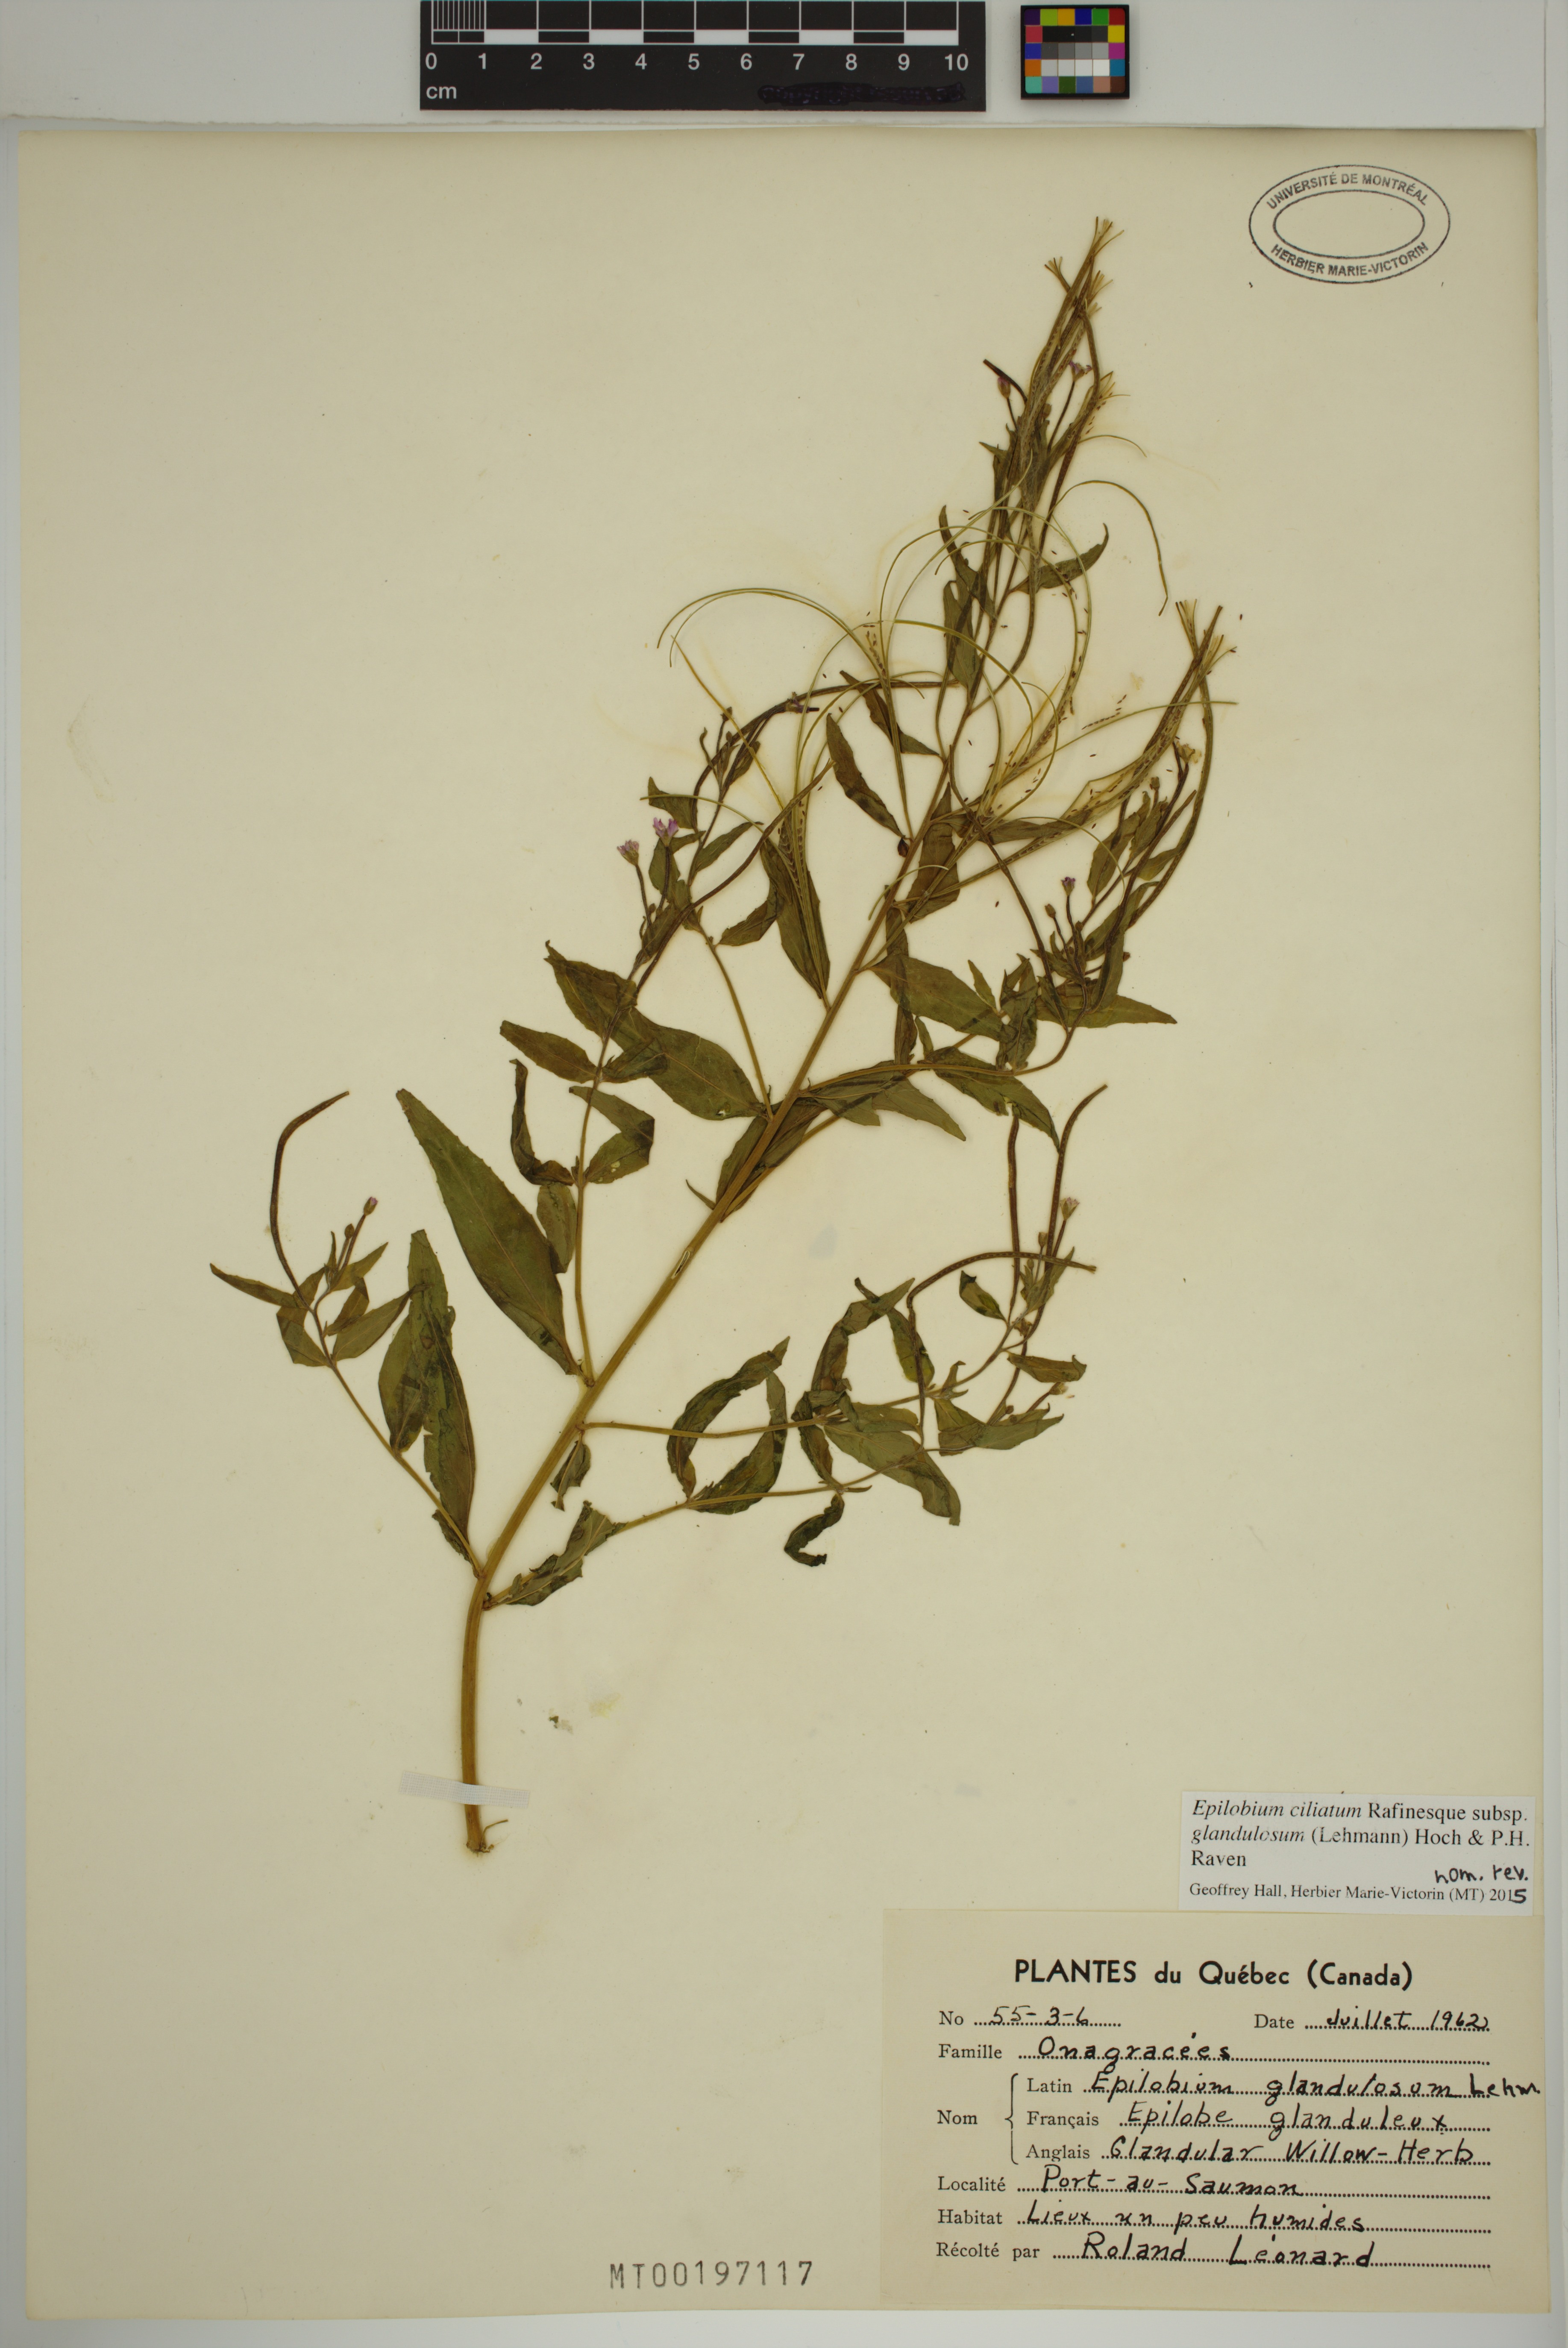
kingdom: Plantae
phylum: Tracheophyta
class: Magnoliopsida
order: Myrtales
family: Onagraceae
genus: Epilobium
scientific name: Epilobium ciliatum
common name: American willowherb
